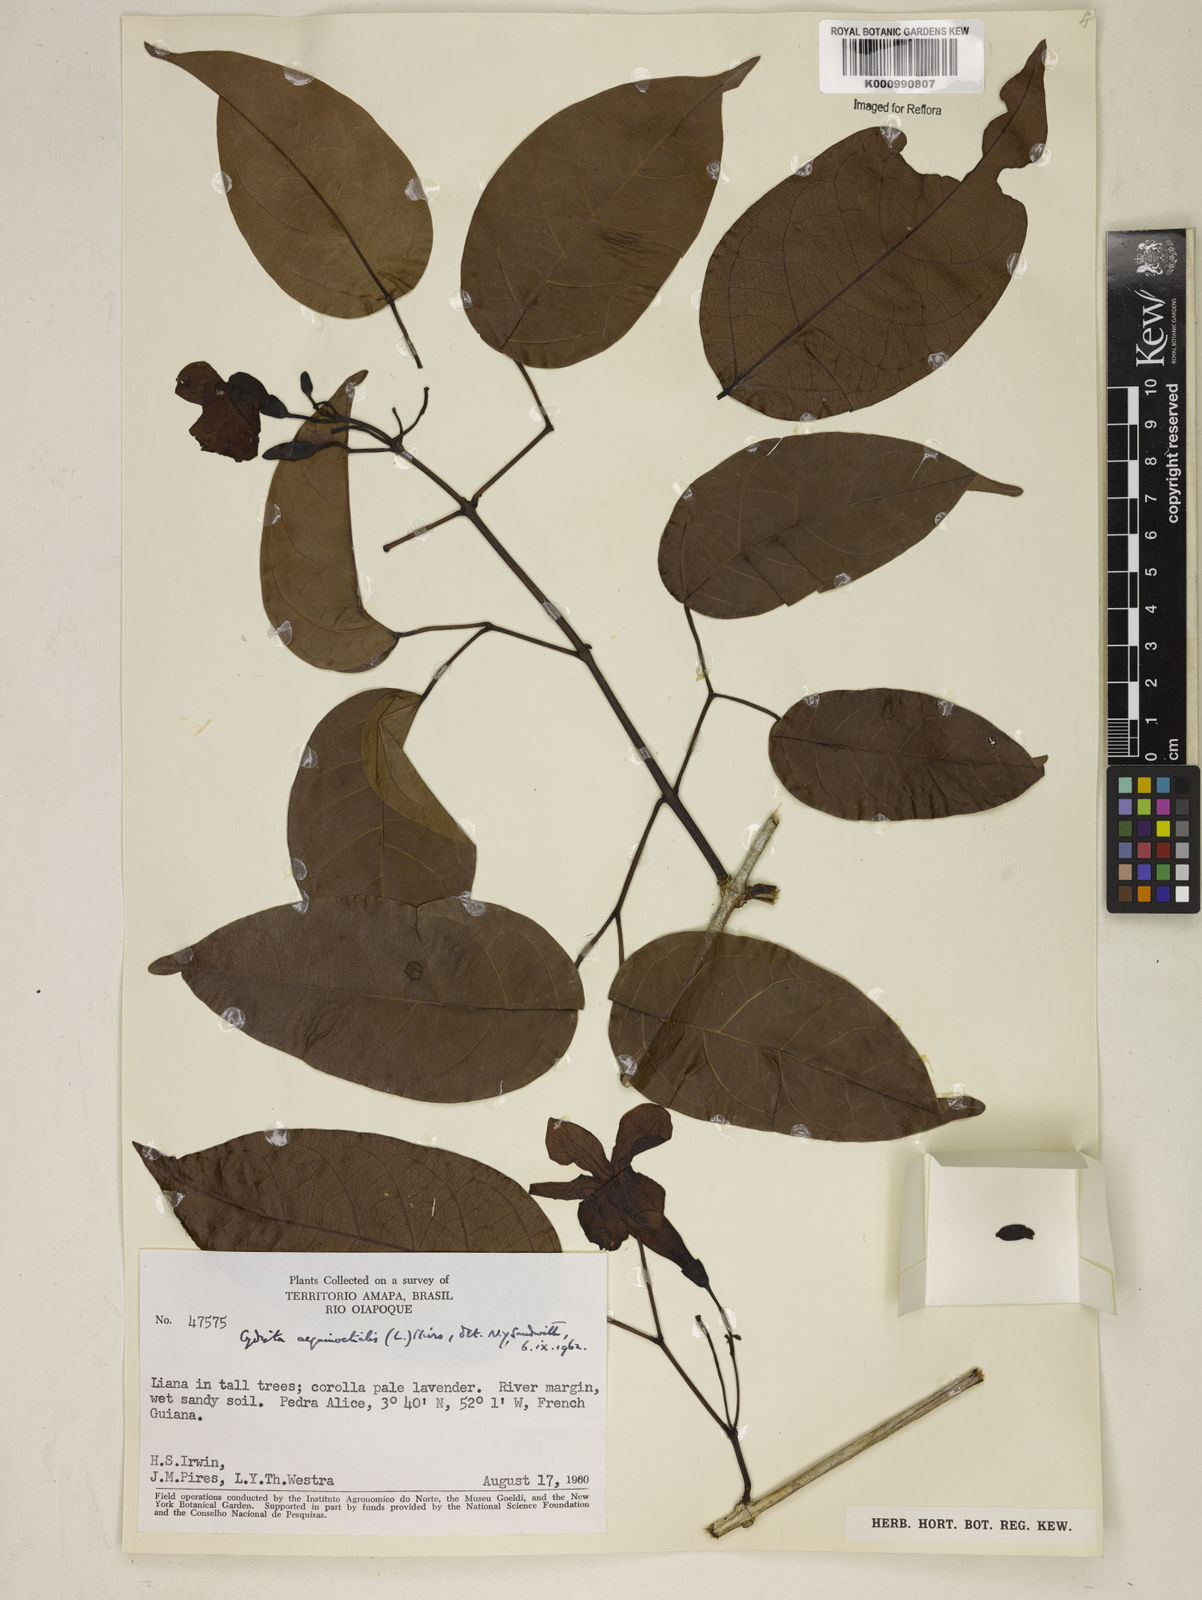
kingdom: Plantae
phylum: Tracheophyta
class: Magnoliopsida
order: Lamiales
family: Bignoniaceae
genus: Bignonia
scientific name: Bignonia aequinoctialis
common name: Garlicvine
